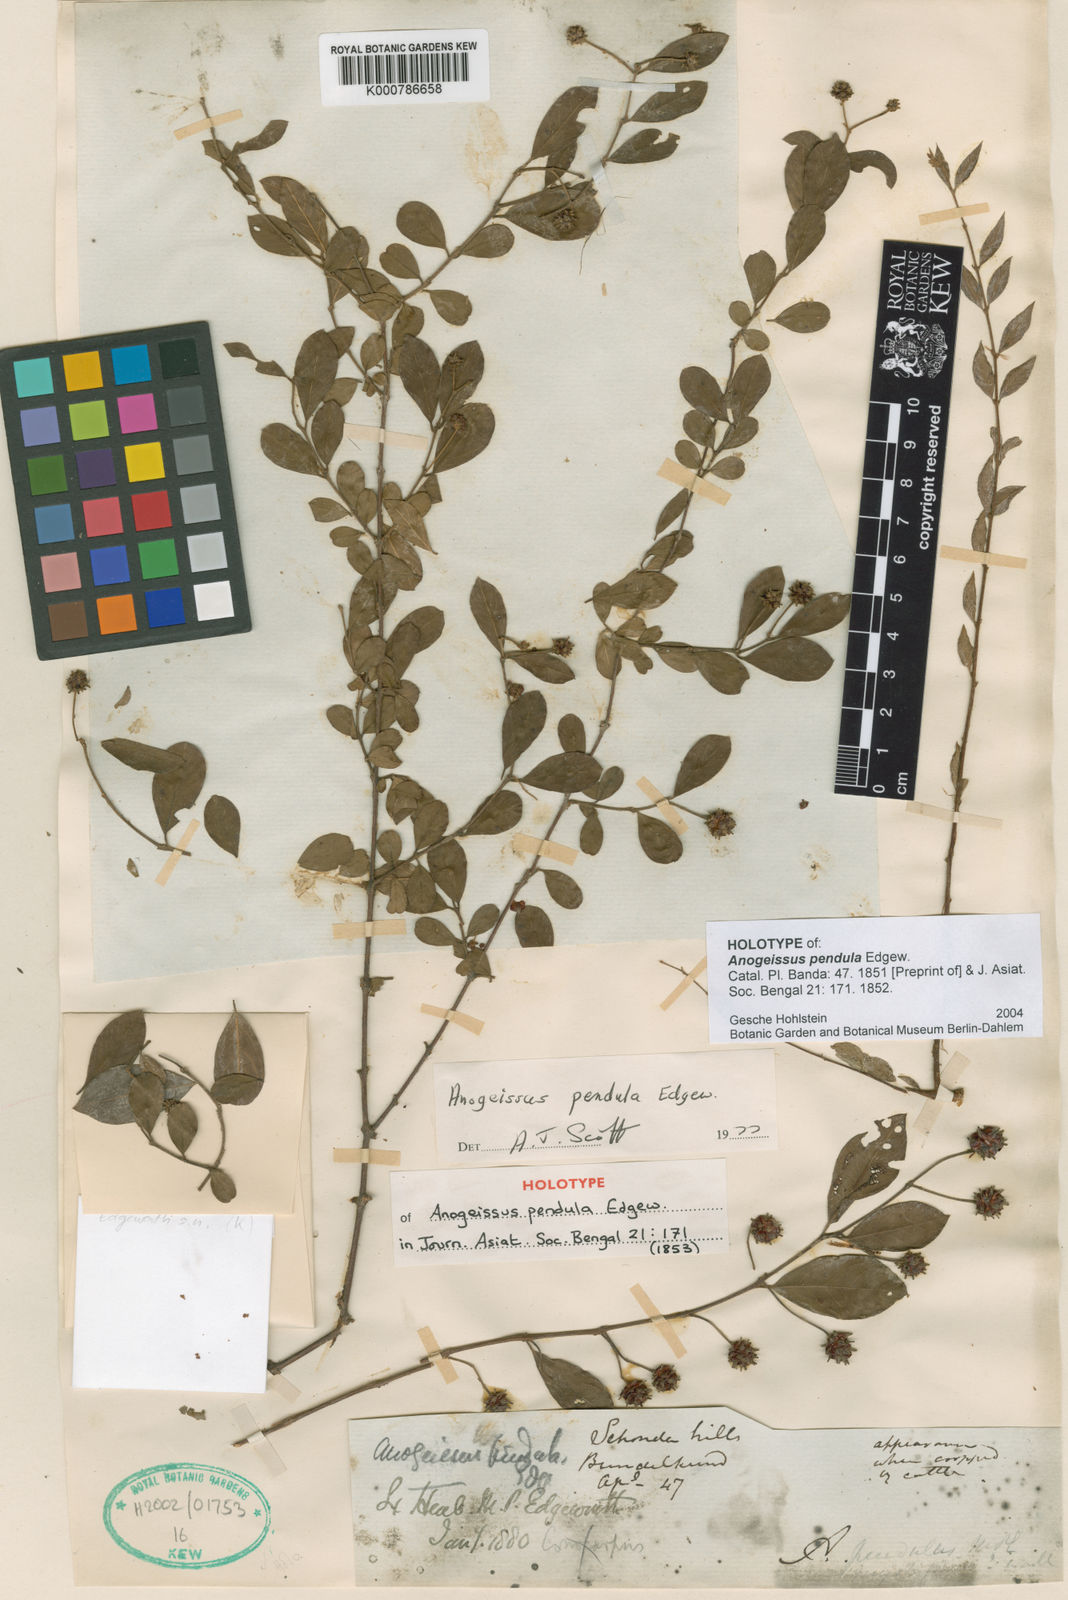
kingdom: Plantae
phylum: Tracheophyta
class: Magnoliopsida
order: Myrtales
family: Combretaceae
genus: Terminalia
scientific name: Terminalia pendula
